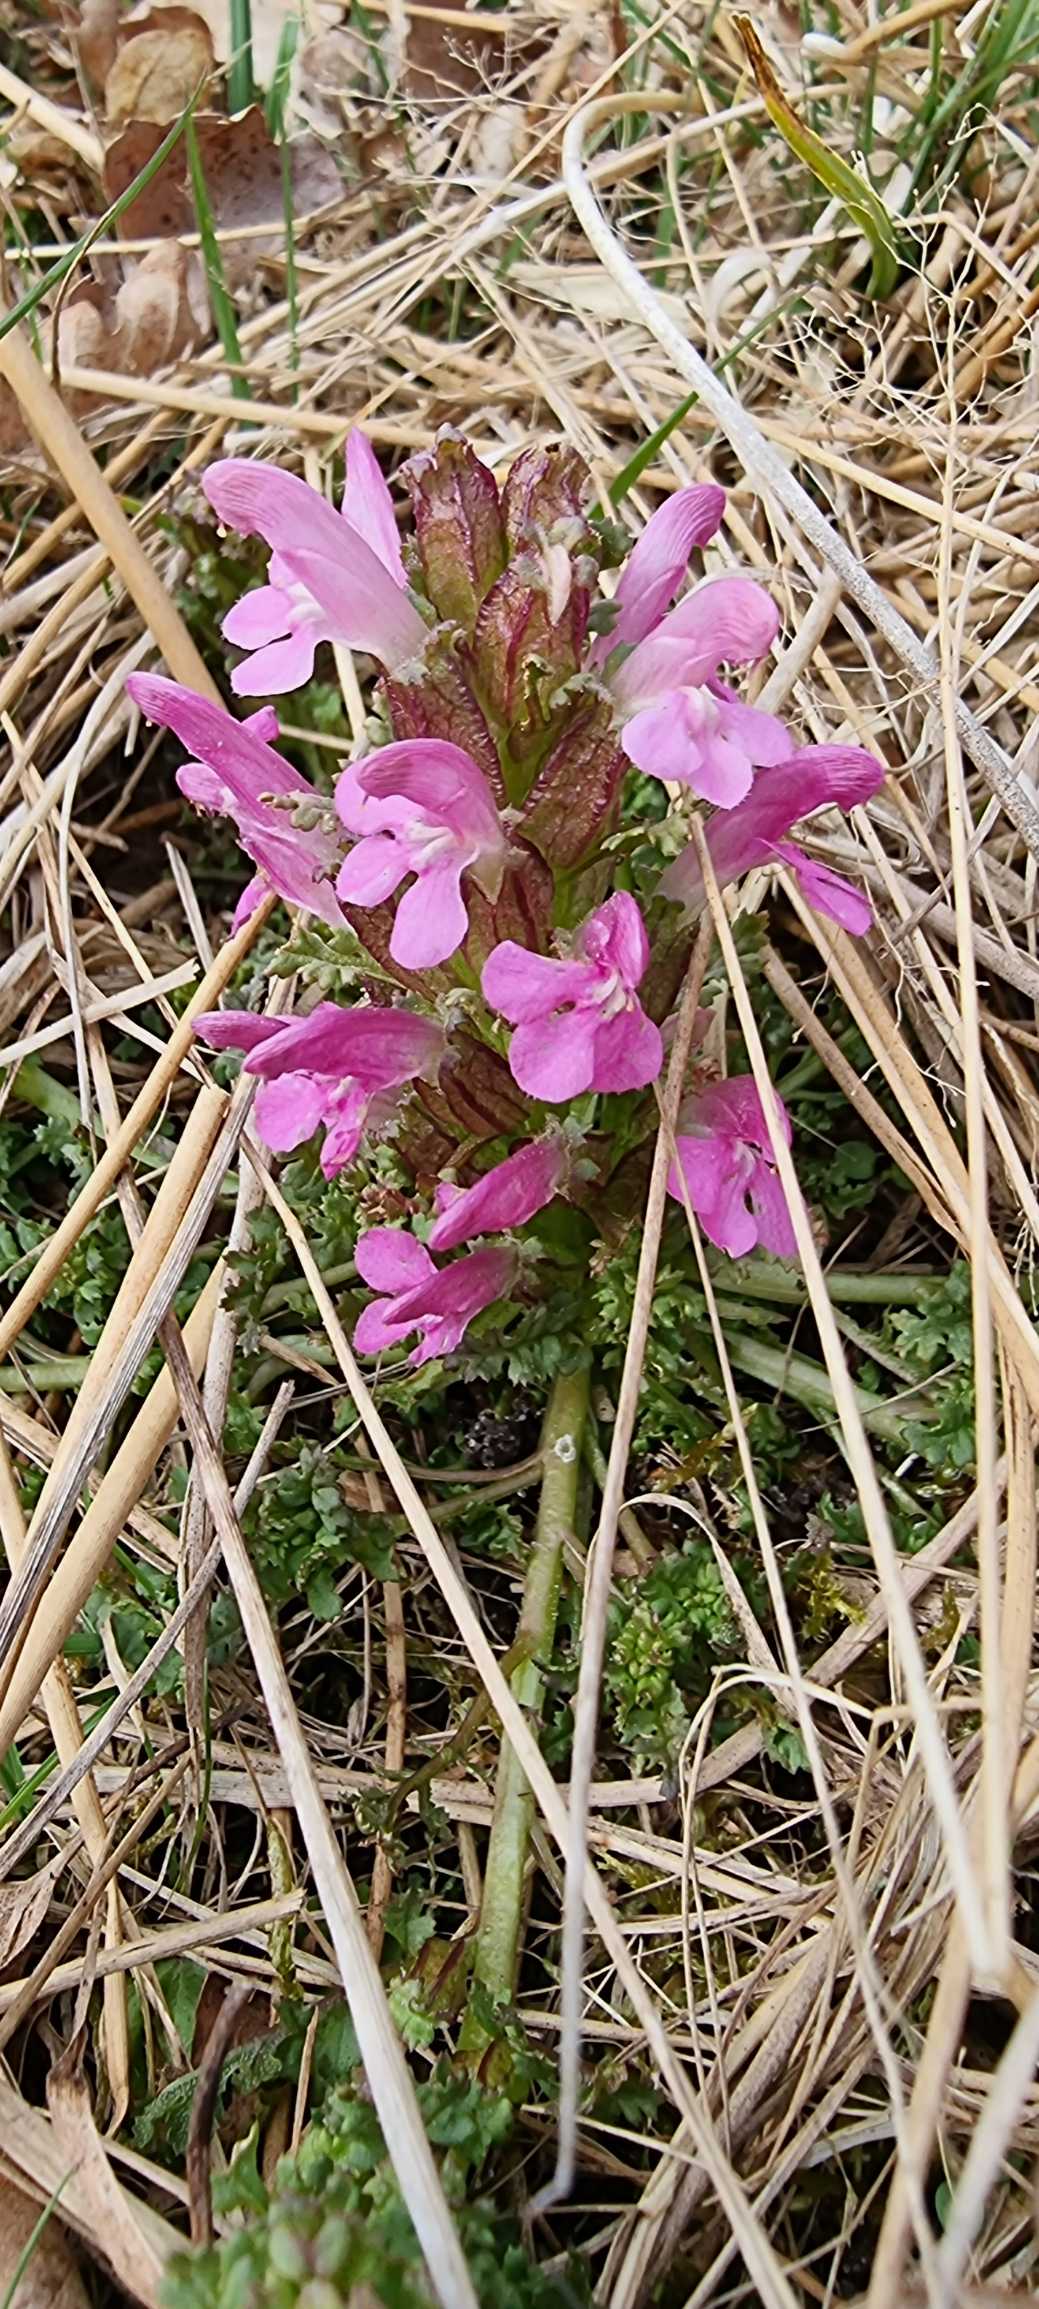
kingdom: Plantae
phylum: Tracheophyta
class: Magnoliopsida
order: Lamiales
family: Orobanchaceae
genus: Pedicularis
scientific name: Pedicularis sylvatica
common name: Mose-troldurt
